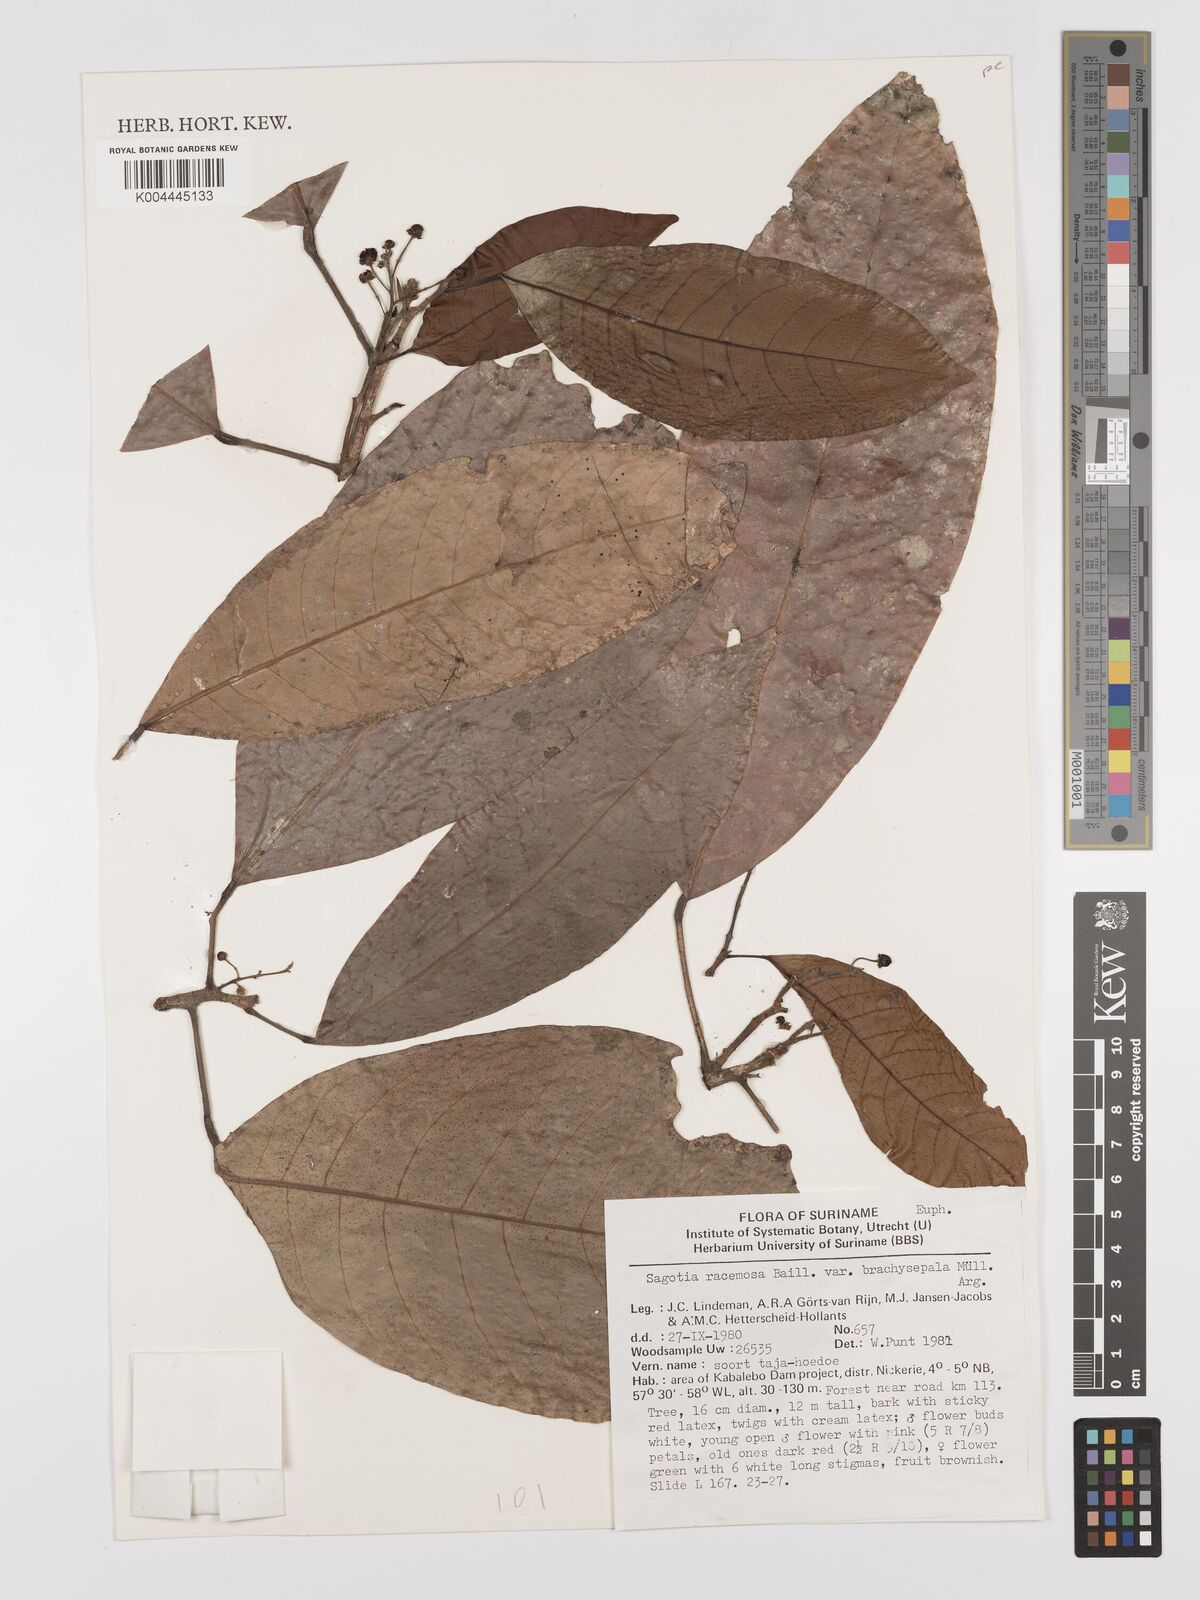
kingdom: Plantae
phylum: Tracheophyta
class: Magnoliopsida
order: Malpighiales
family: Euphorbiaceae
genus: Sagotia
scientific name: Sagotia racemosa
